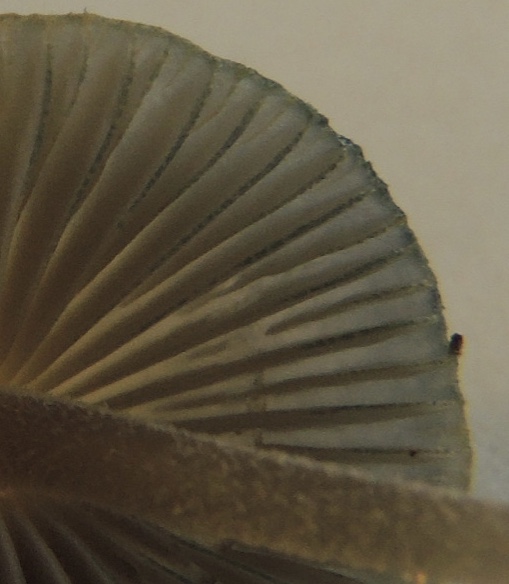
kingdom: Fungi
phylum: Basidiomycota
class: Agaricomycetes
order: Agaricales
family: Mycenaceae
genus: Mycena
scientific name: Mycena amicta
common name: iris-huesvamp
